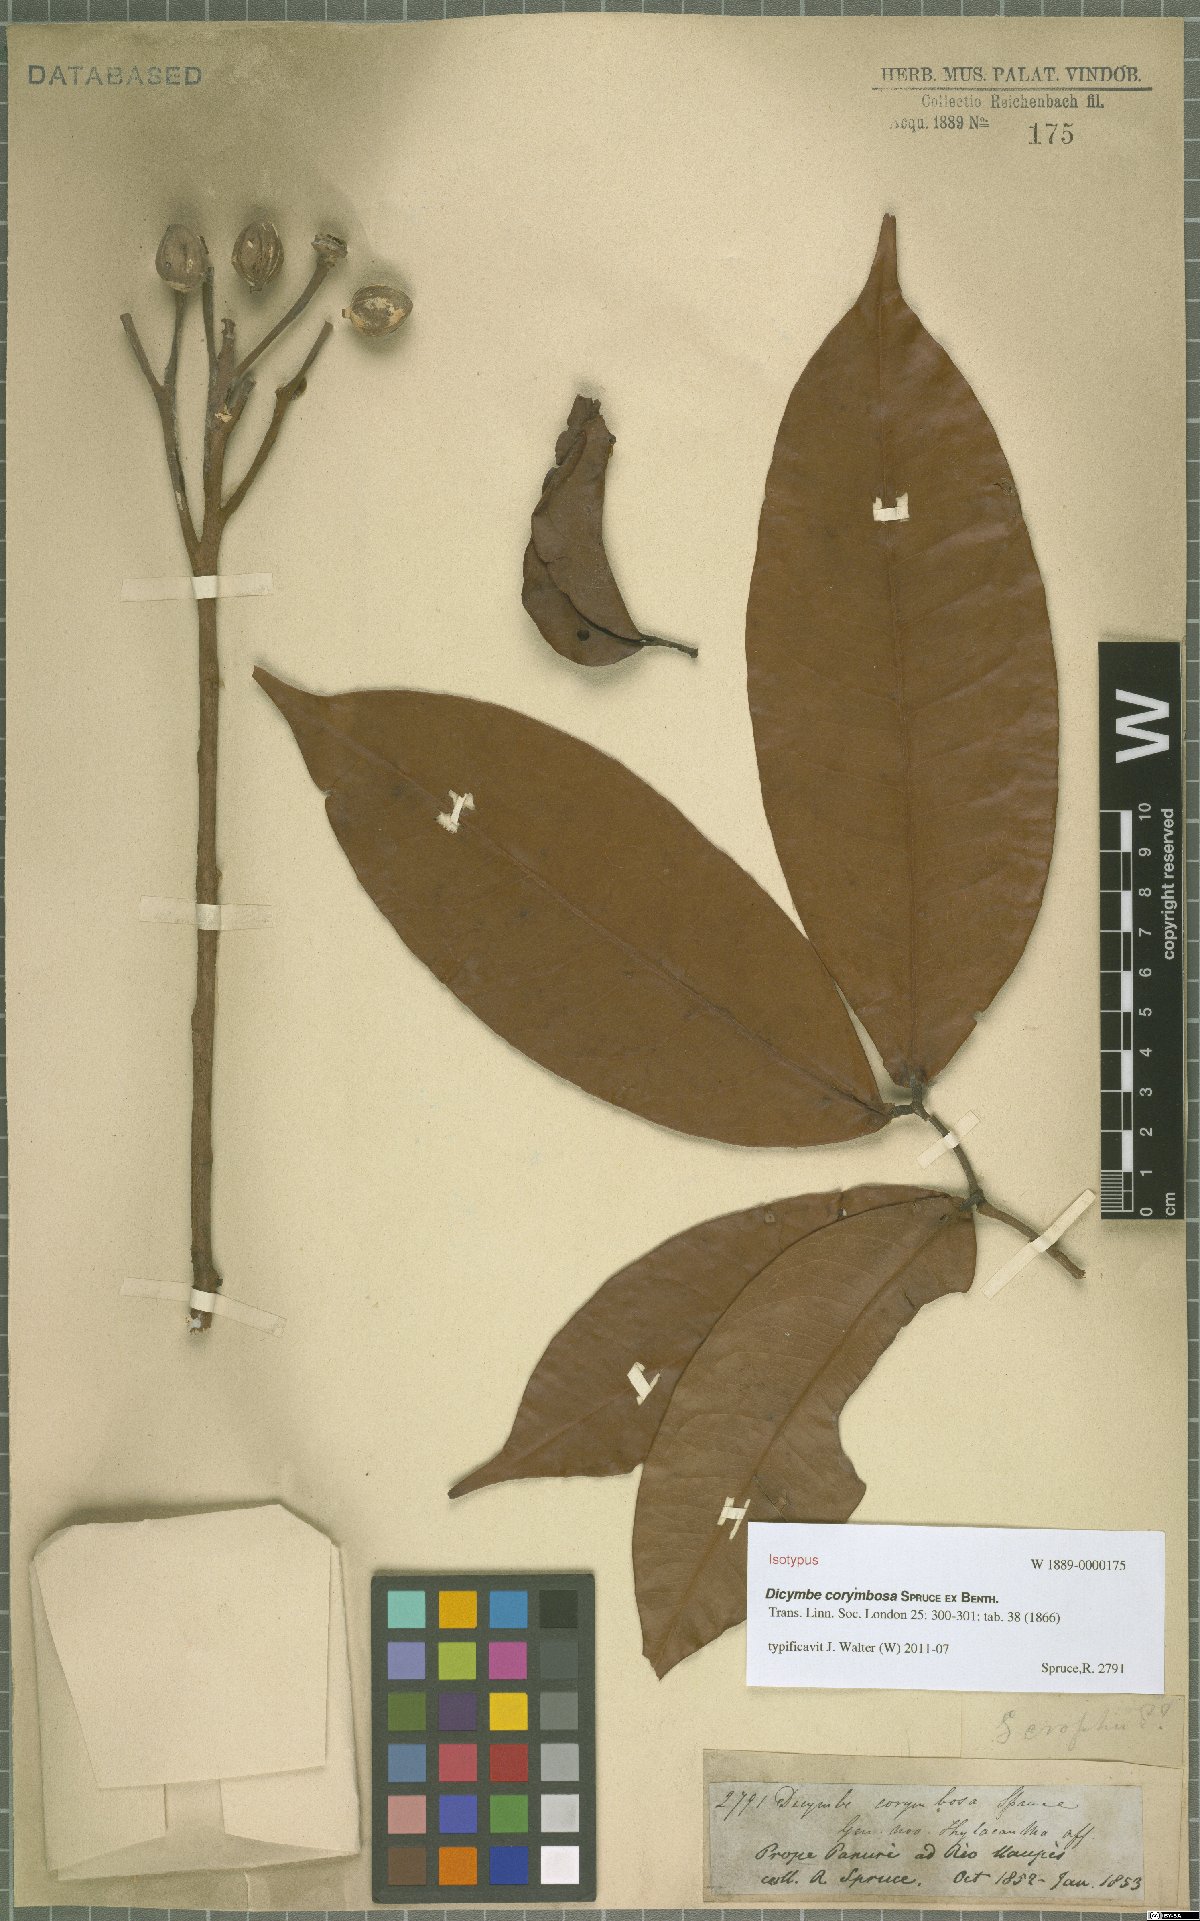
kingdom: Plantae
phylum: Tracheophyta
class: Magnoliopsida
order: Fabales
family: Fabaceae
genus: Dicymbe
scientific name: Dicymbe corymbosa
